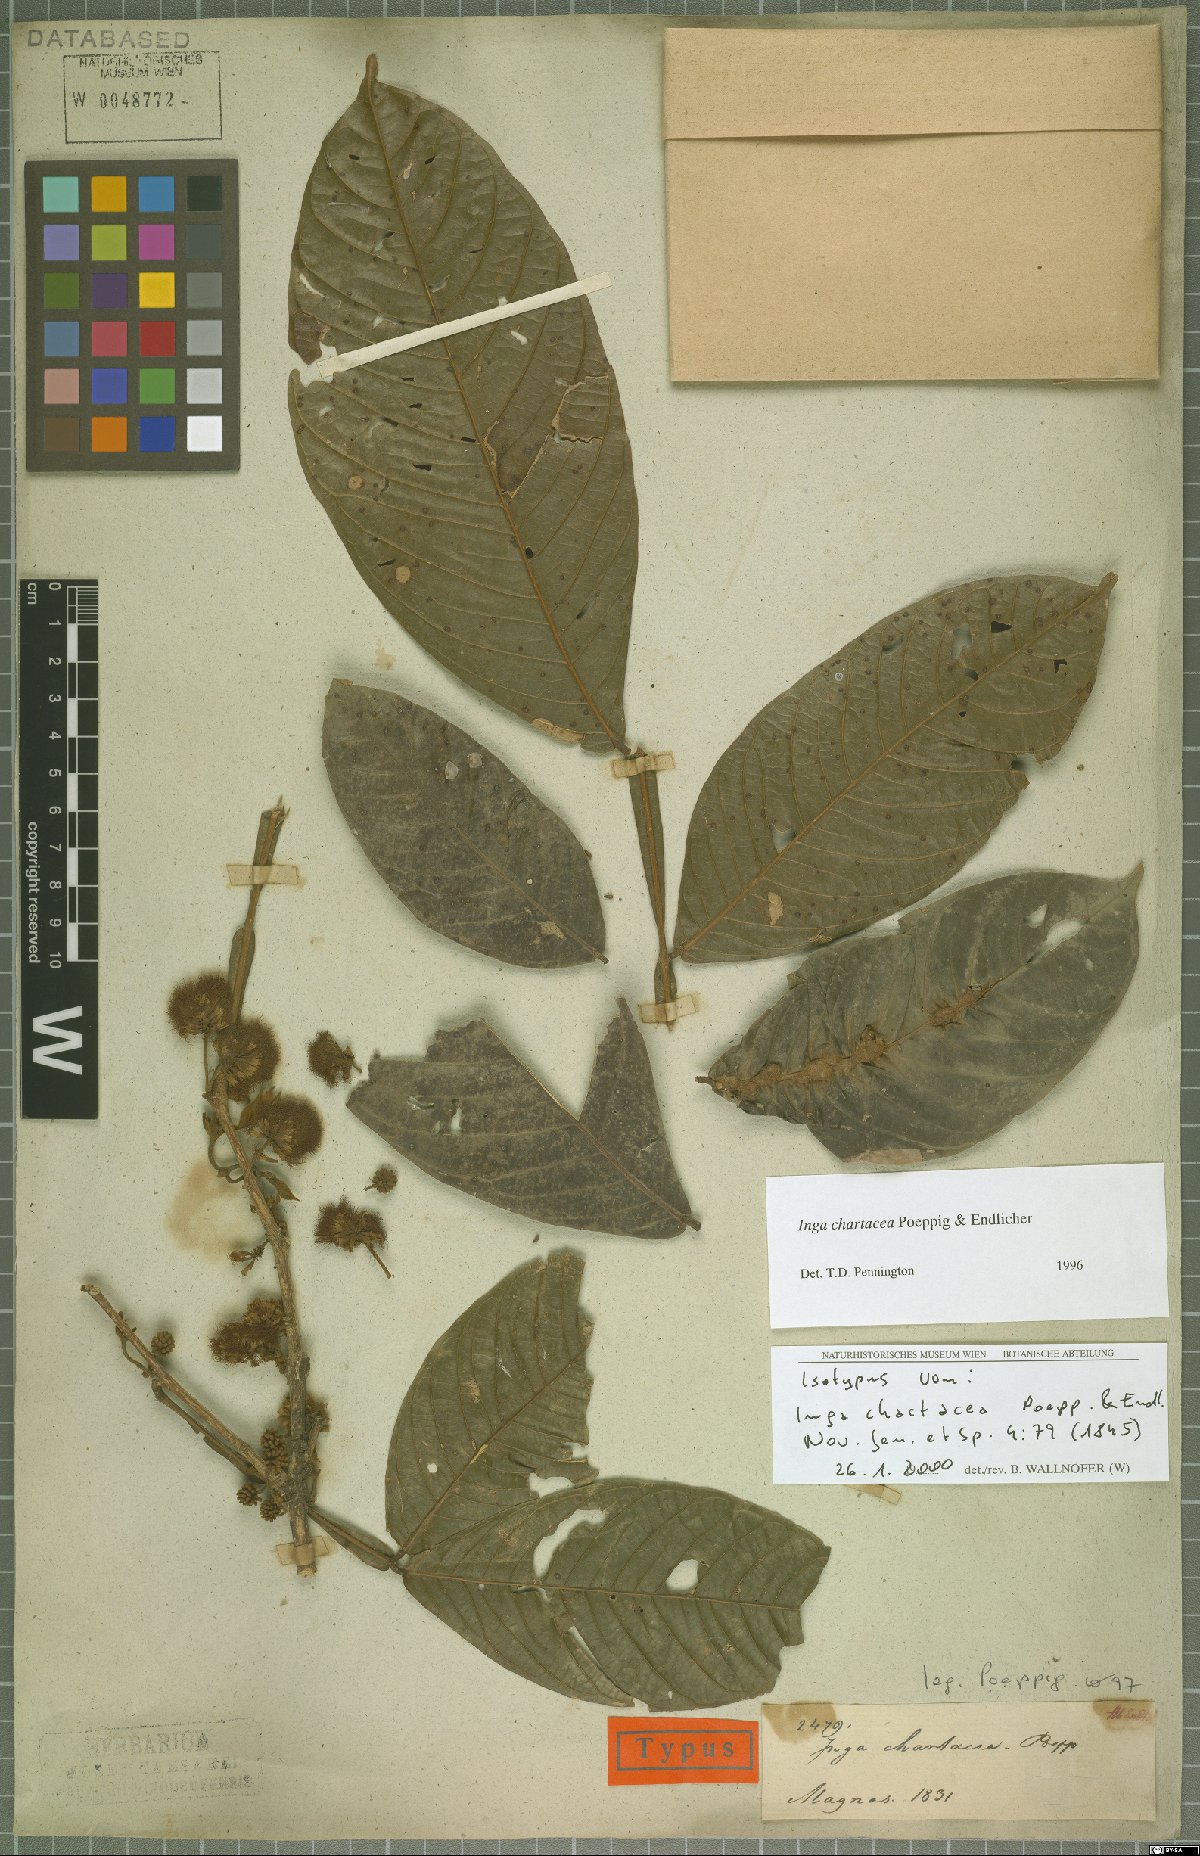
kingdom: Plantae
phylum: Tracheophyta
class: Magnoliopsida
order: Fabales
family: Fabaceae
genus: Inga
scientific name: Inga chartacea
